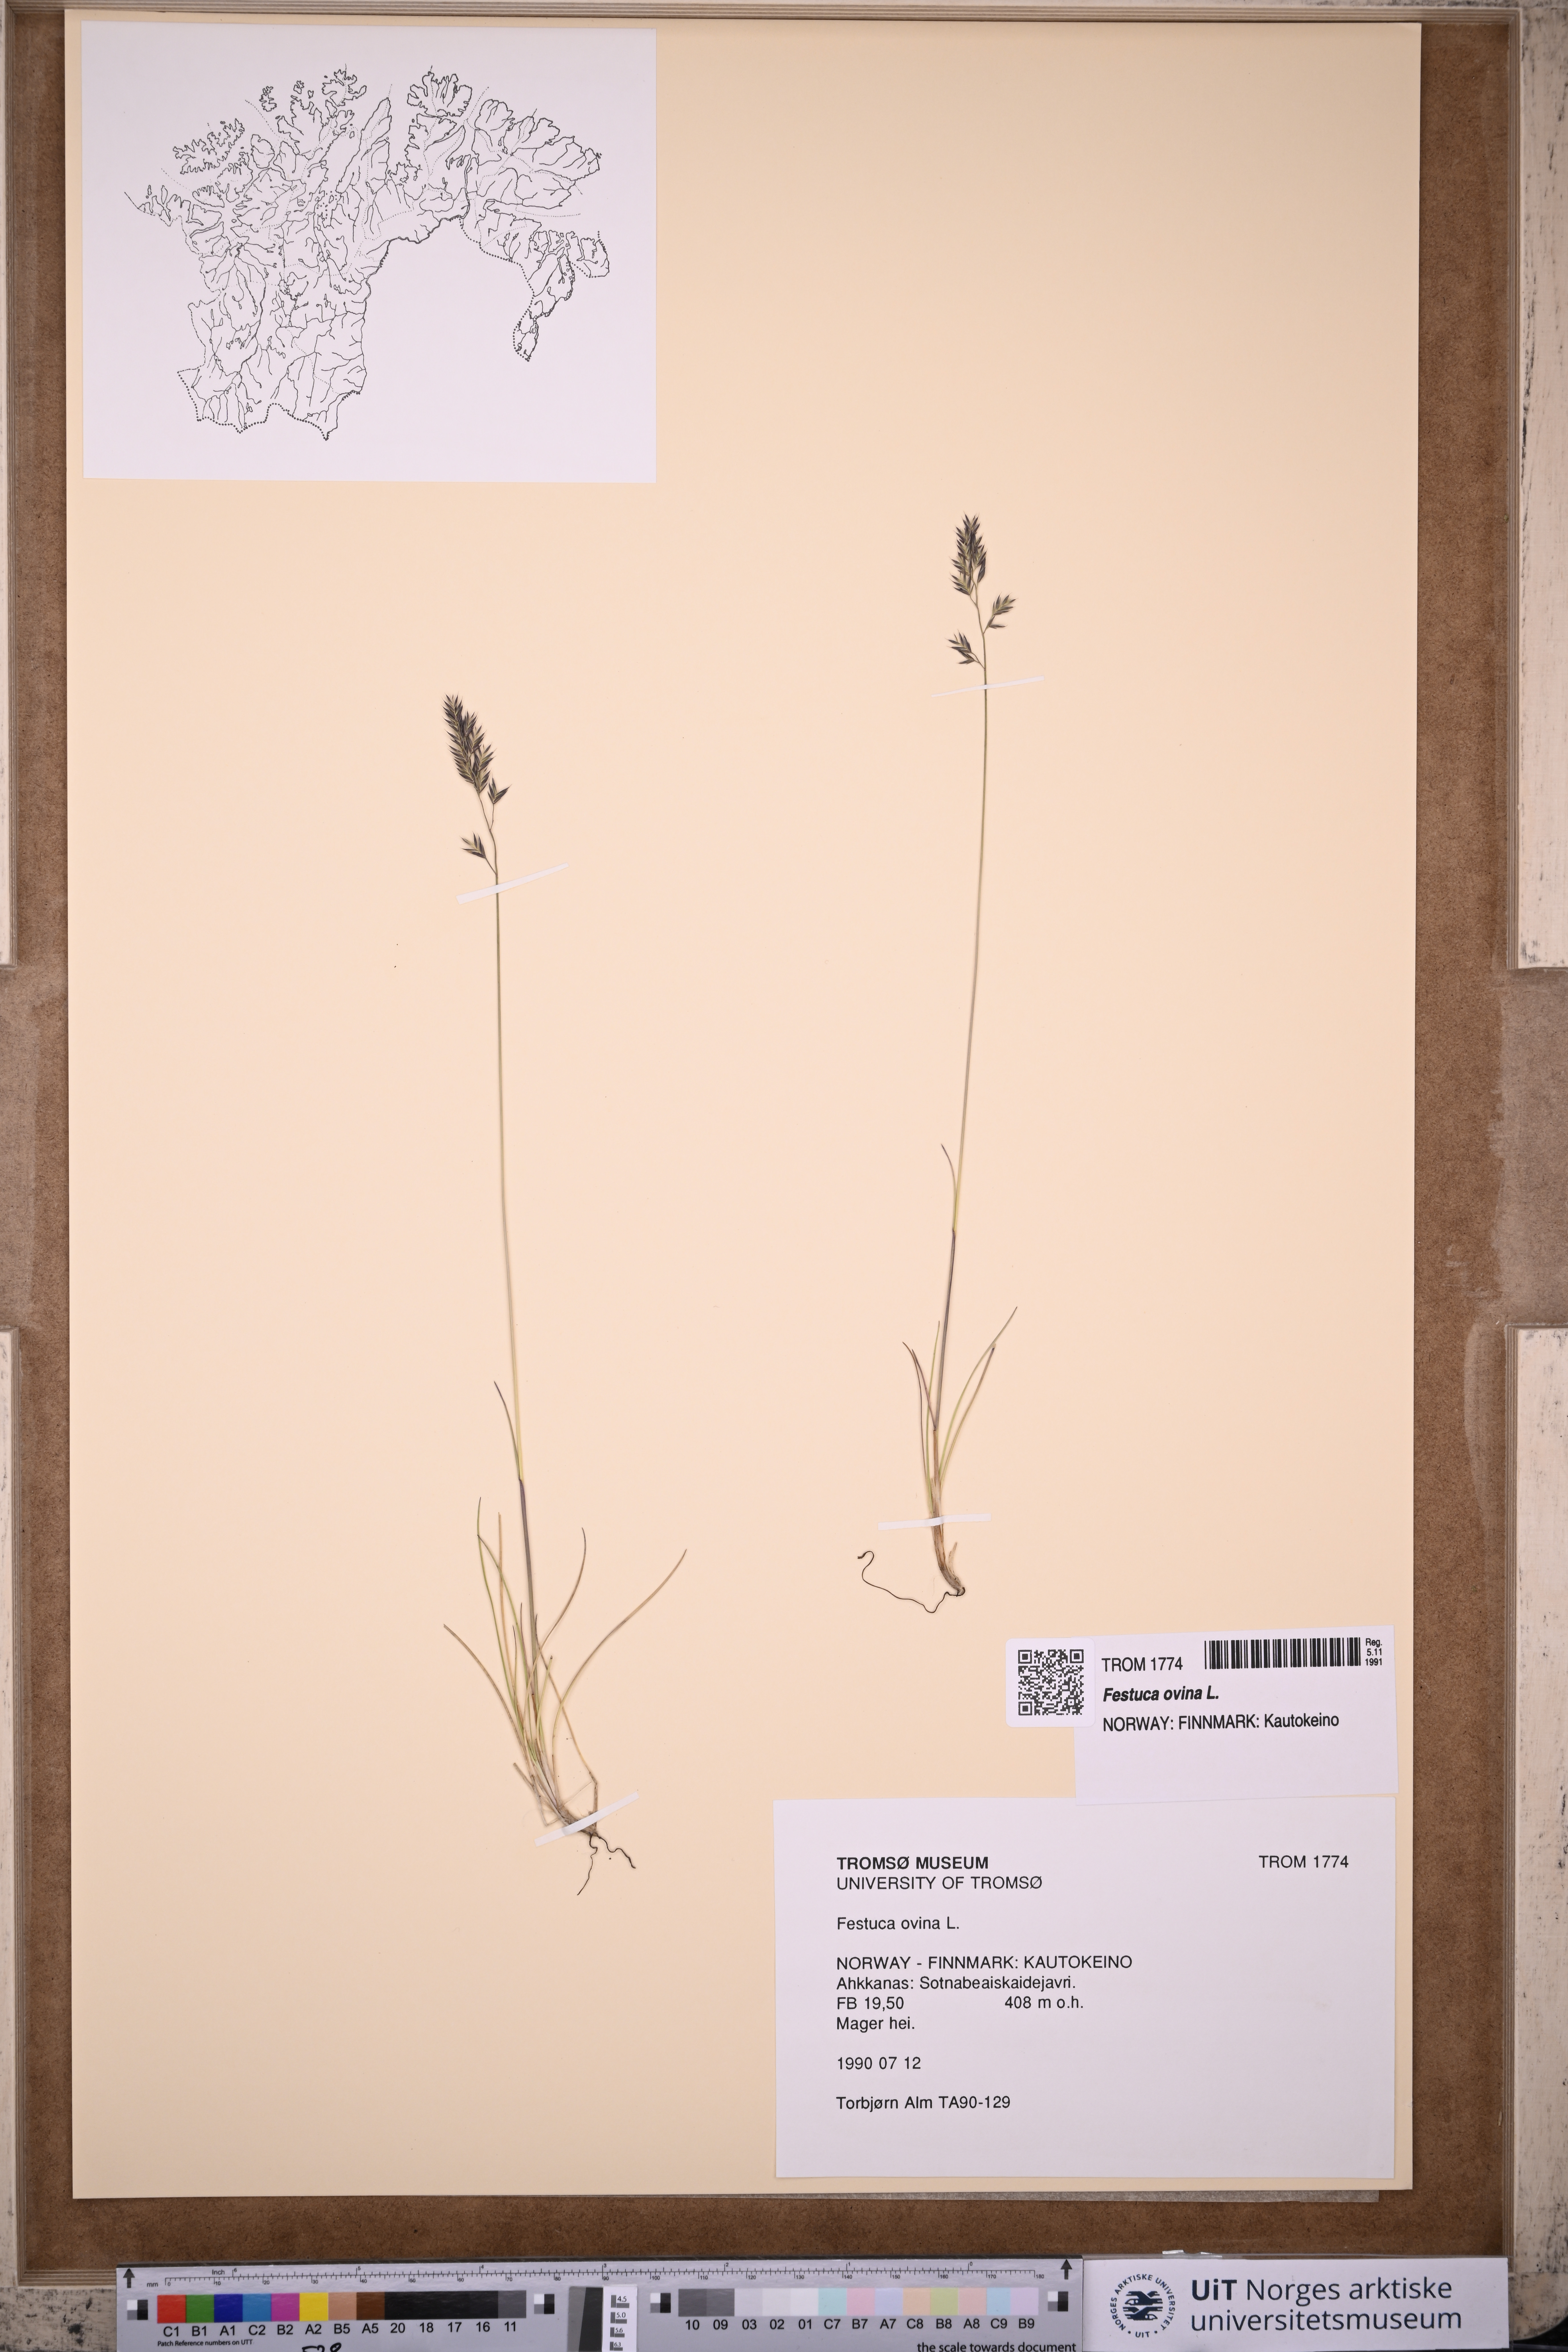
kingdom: Plantae
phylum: Tracheophyta
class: Liliopsida
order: Poales
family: Poaceae
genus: Festuca
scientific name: Festuca ovina
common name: Sheep fescue
